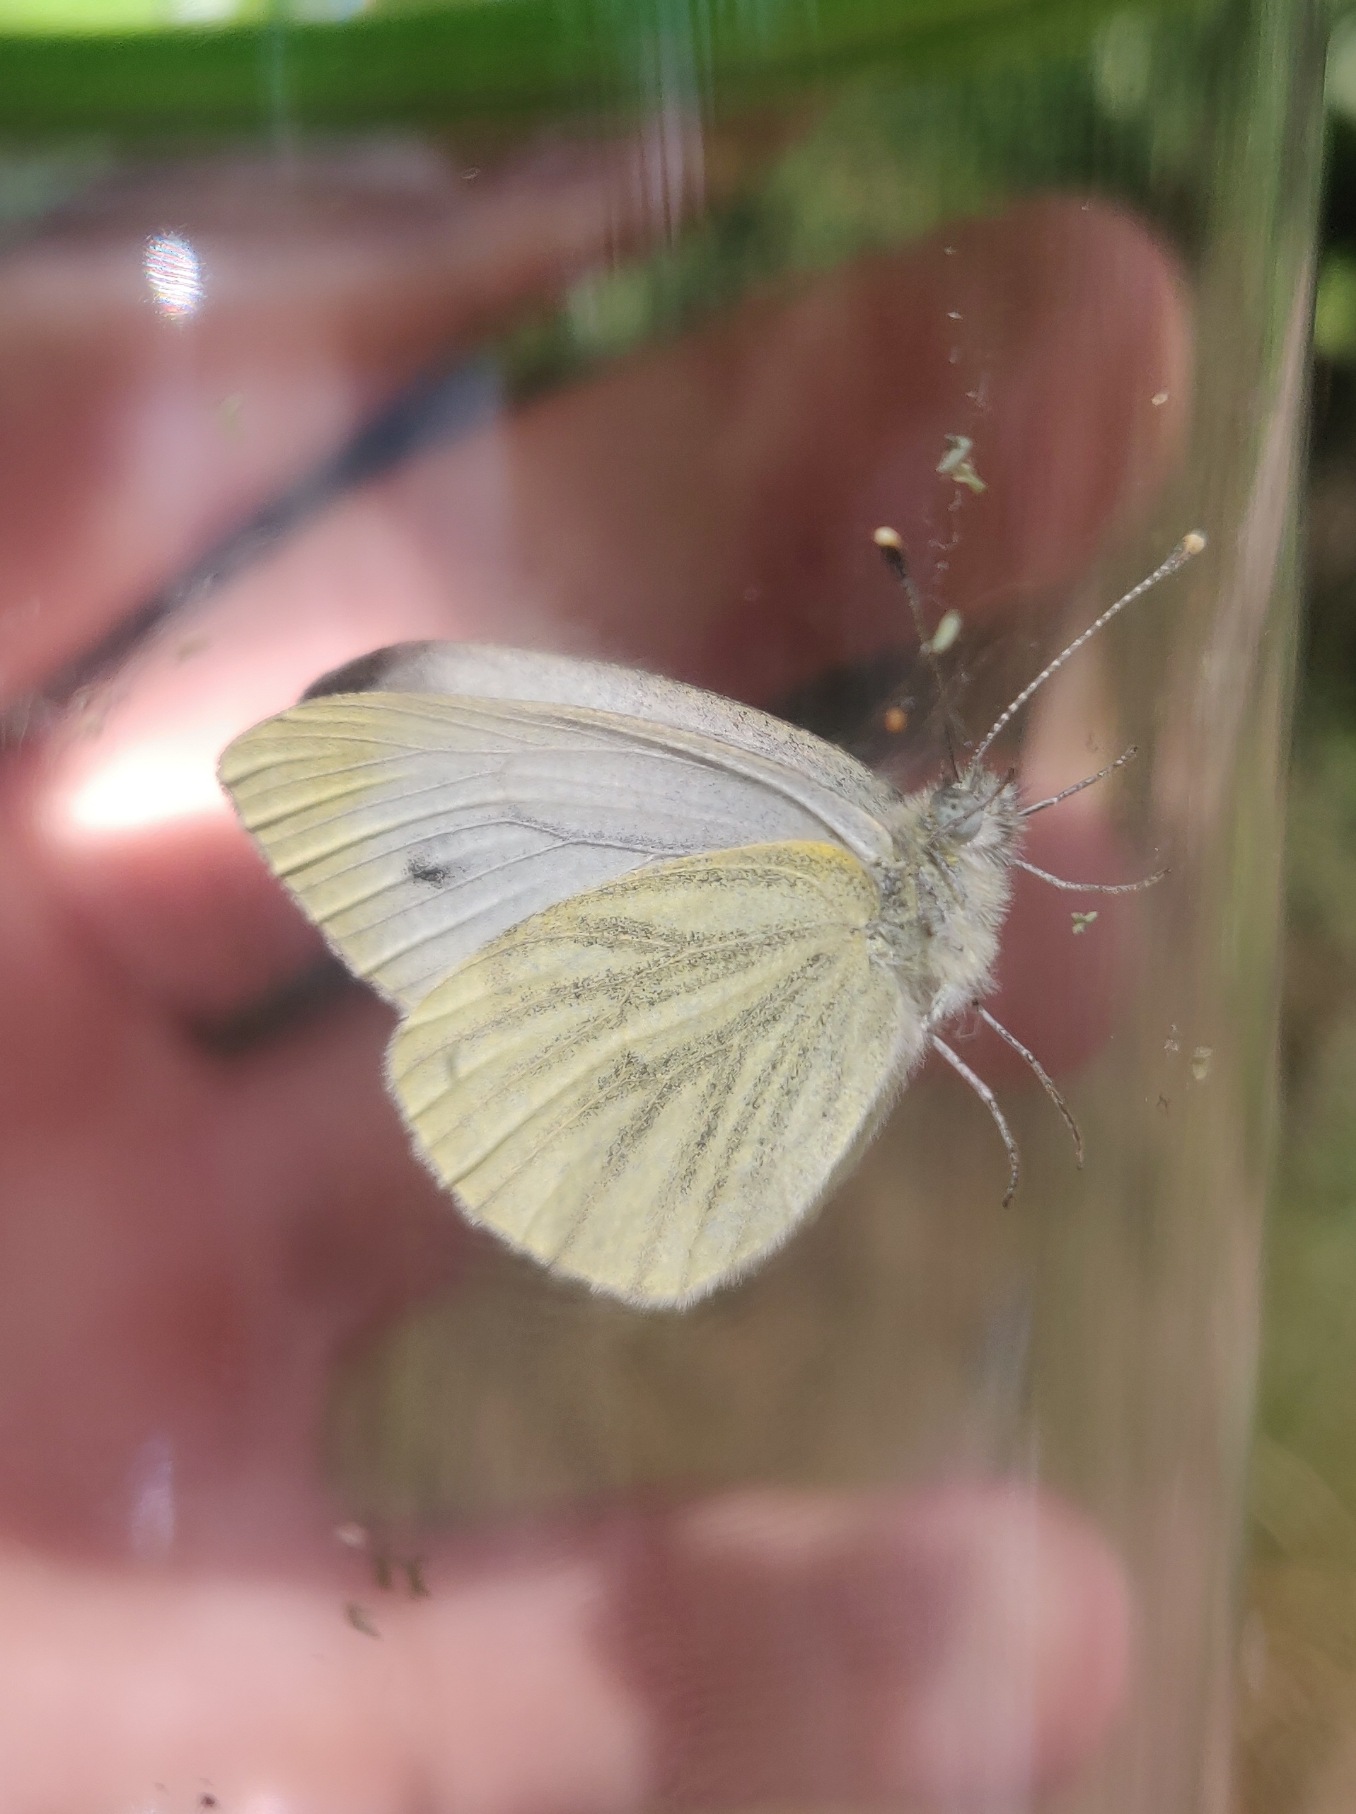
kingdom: Animalia
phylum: Arthropoda
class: Insecta
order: Lepidoptera
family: Pieridae
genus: Pieris
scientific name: Pieris napi
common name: Grønåret kålsommerfugl
